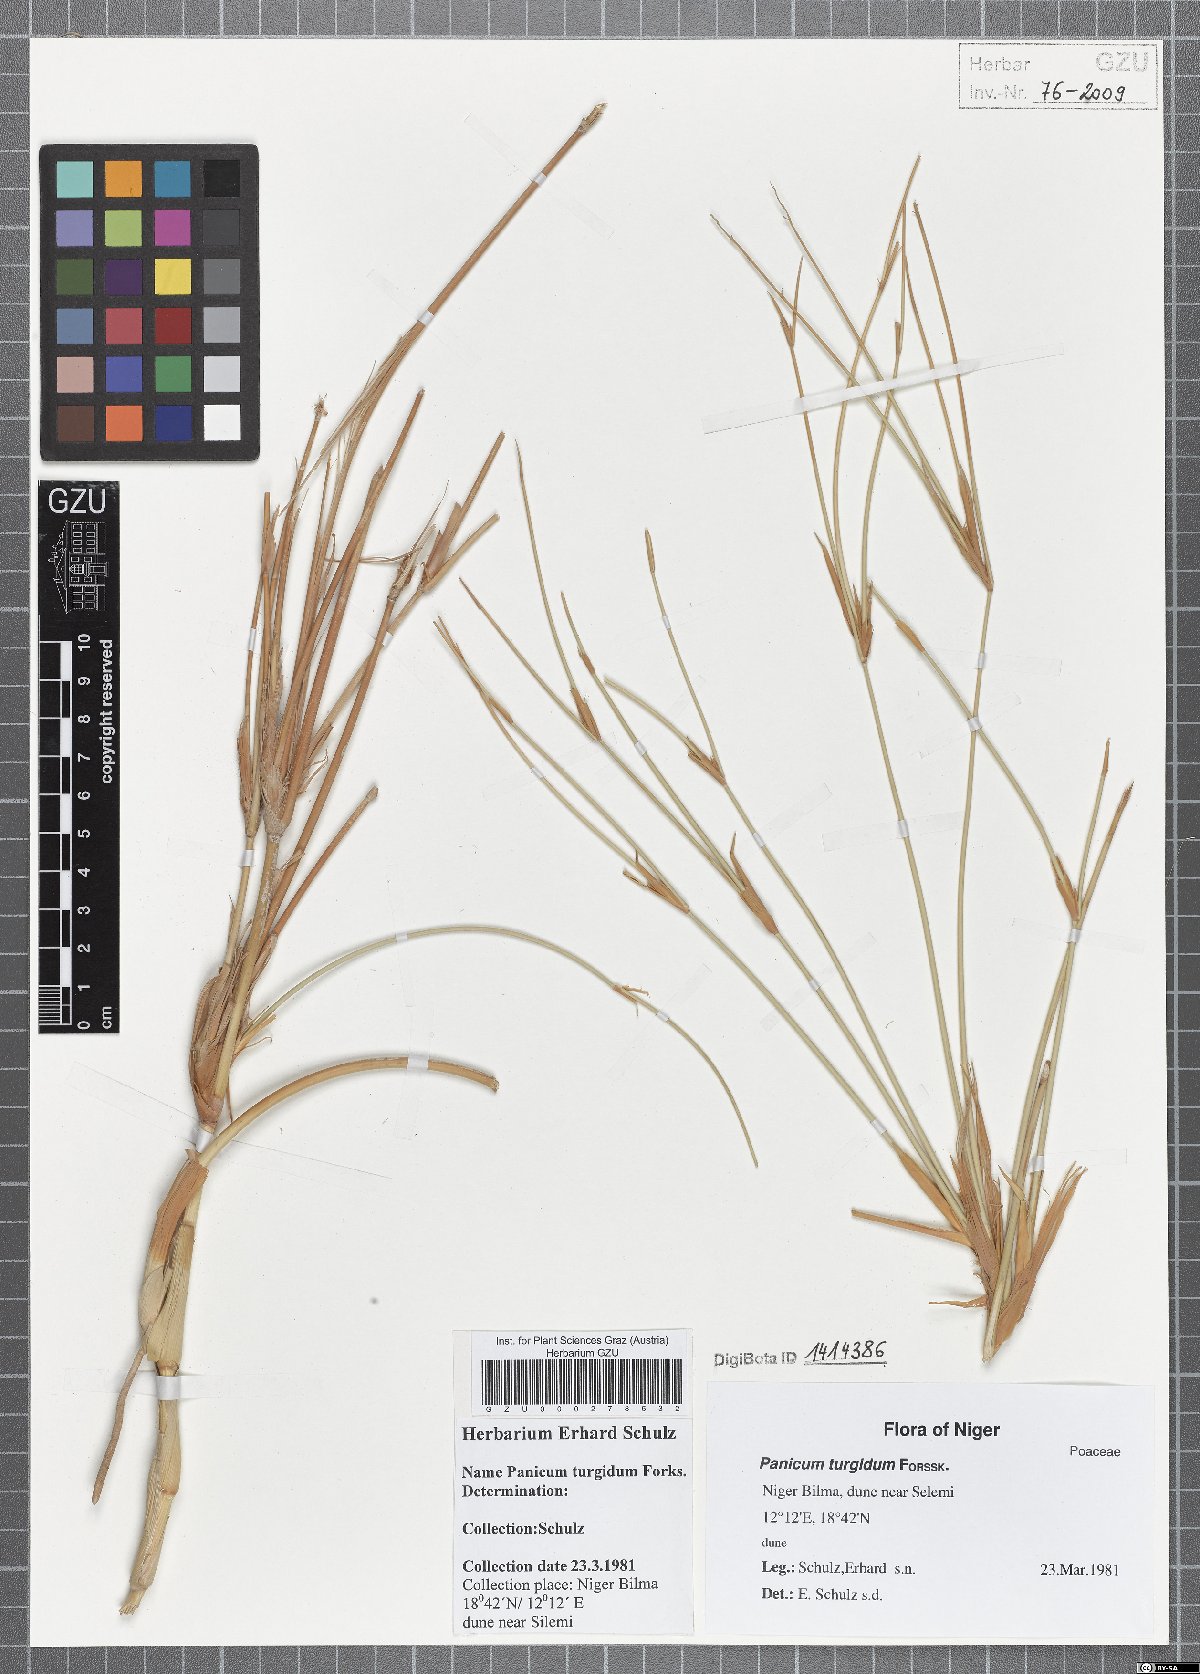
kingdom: Plantae
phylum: Tracheophyta
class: Liliopsida
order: Poales
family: Poaceae
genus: Panicum
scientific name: Panicum turgidum
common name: Desert grass
